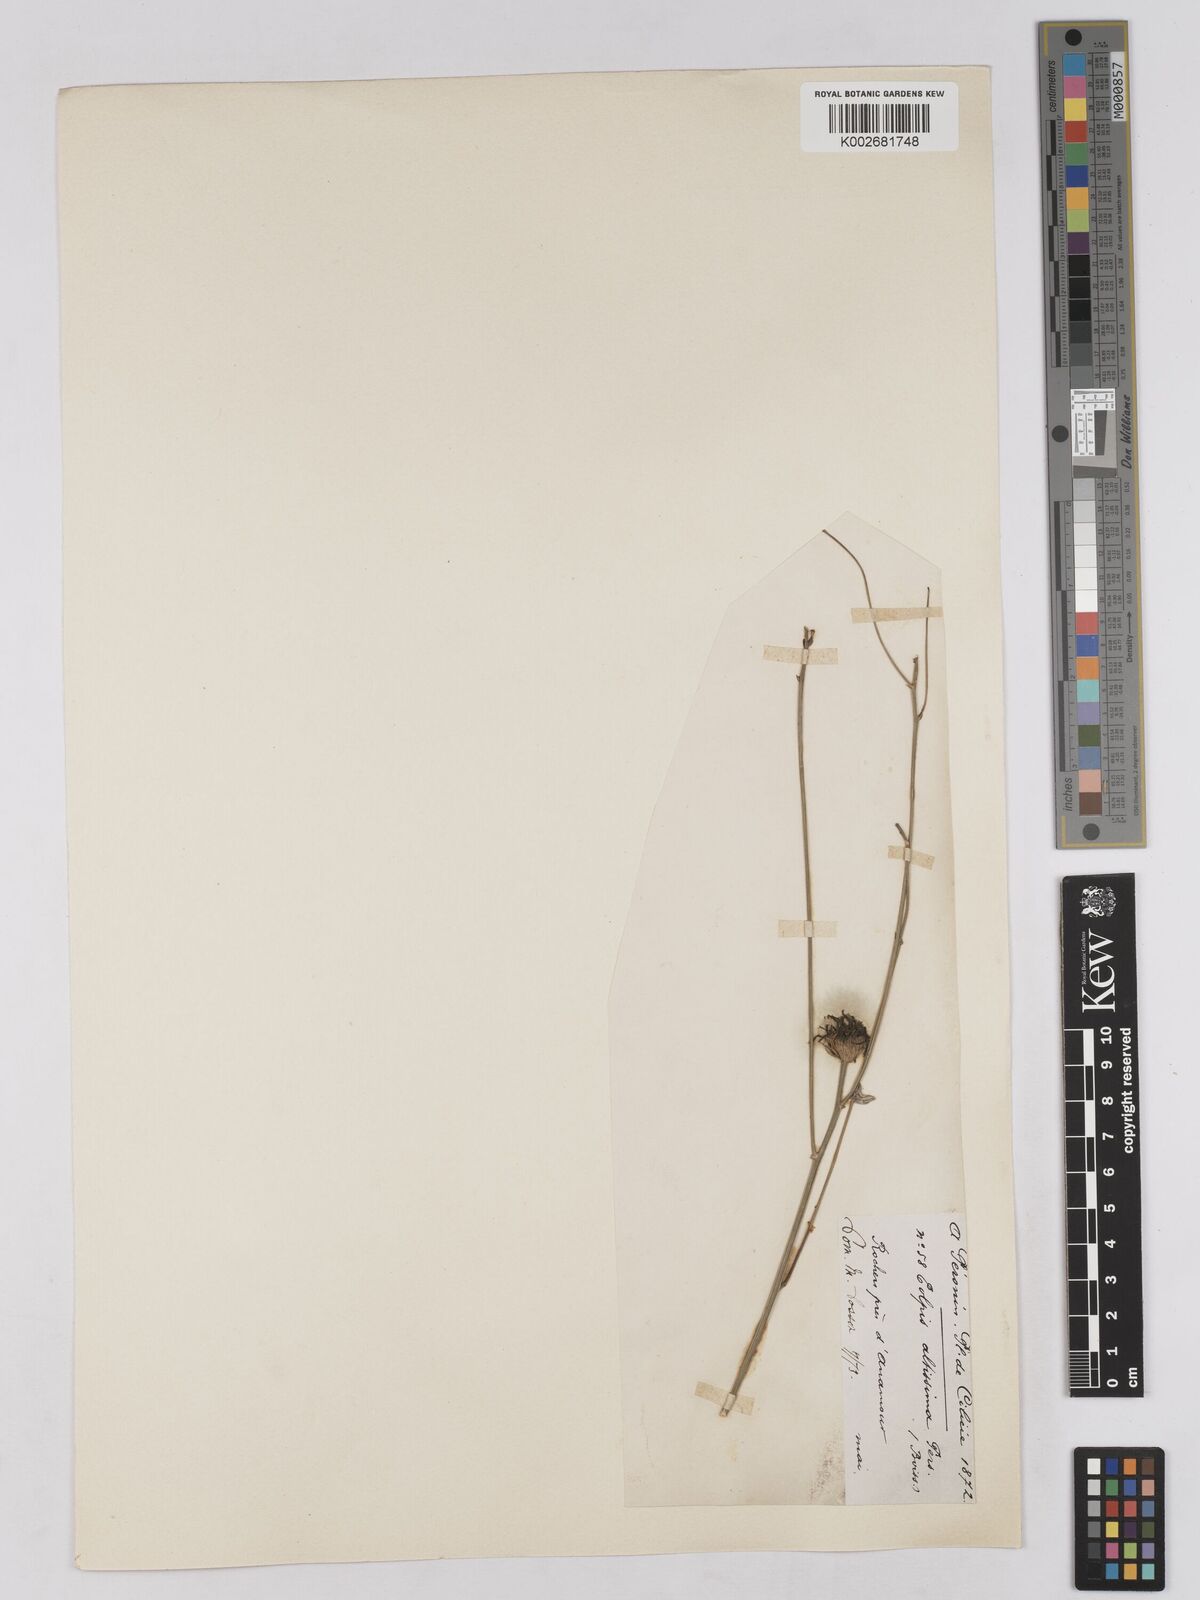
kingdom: Plantae
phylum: Tracheophyta
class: Magnoliopsida
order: Asterales
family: Asteraceae
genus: Tolpis
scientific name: Tolpis virgata
